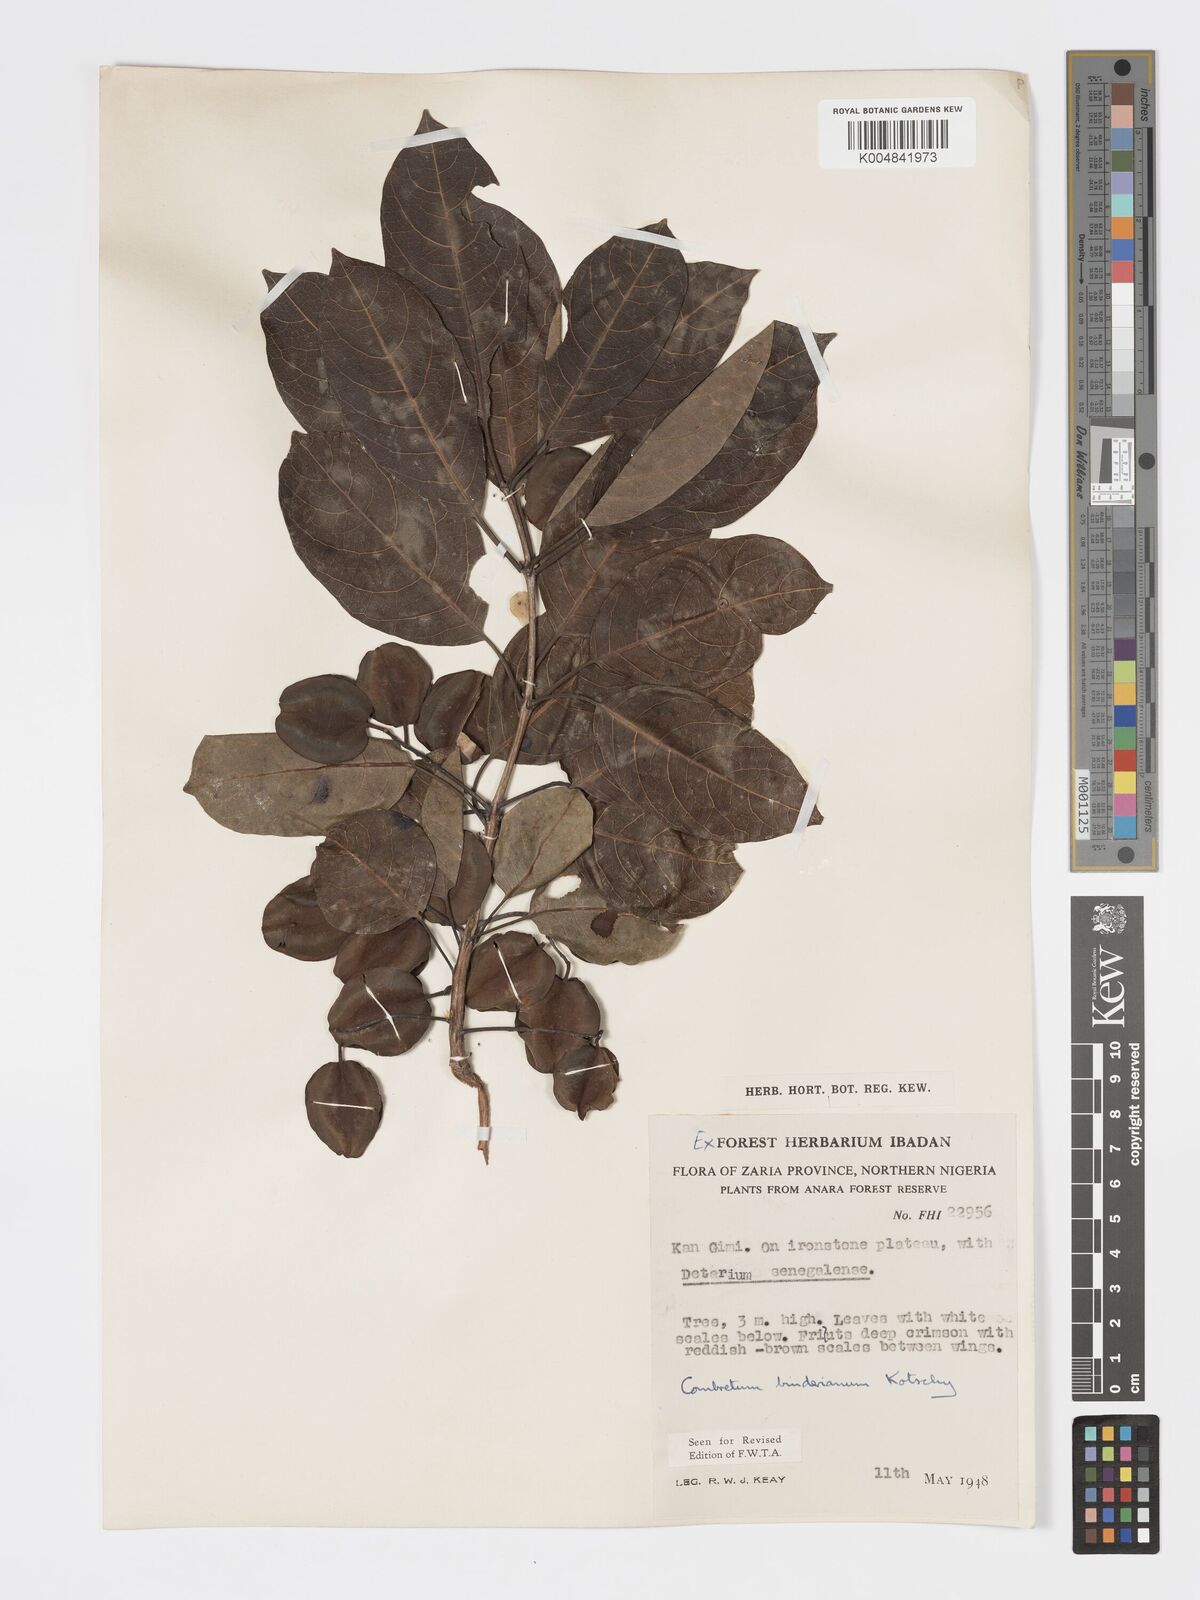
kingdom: Plantae
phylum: Tracheophyta
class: Magnoliopsida
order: Myrtales
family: Combretaceae
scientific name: Combretaceae
